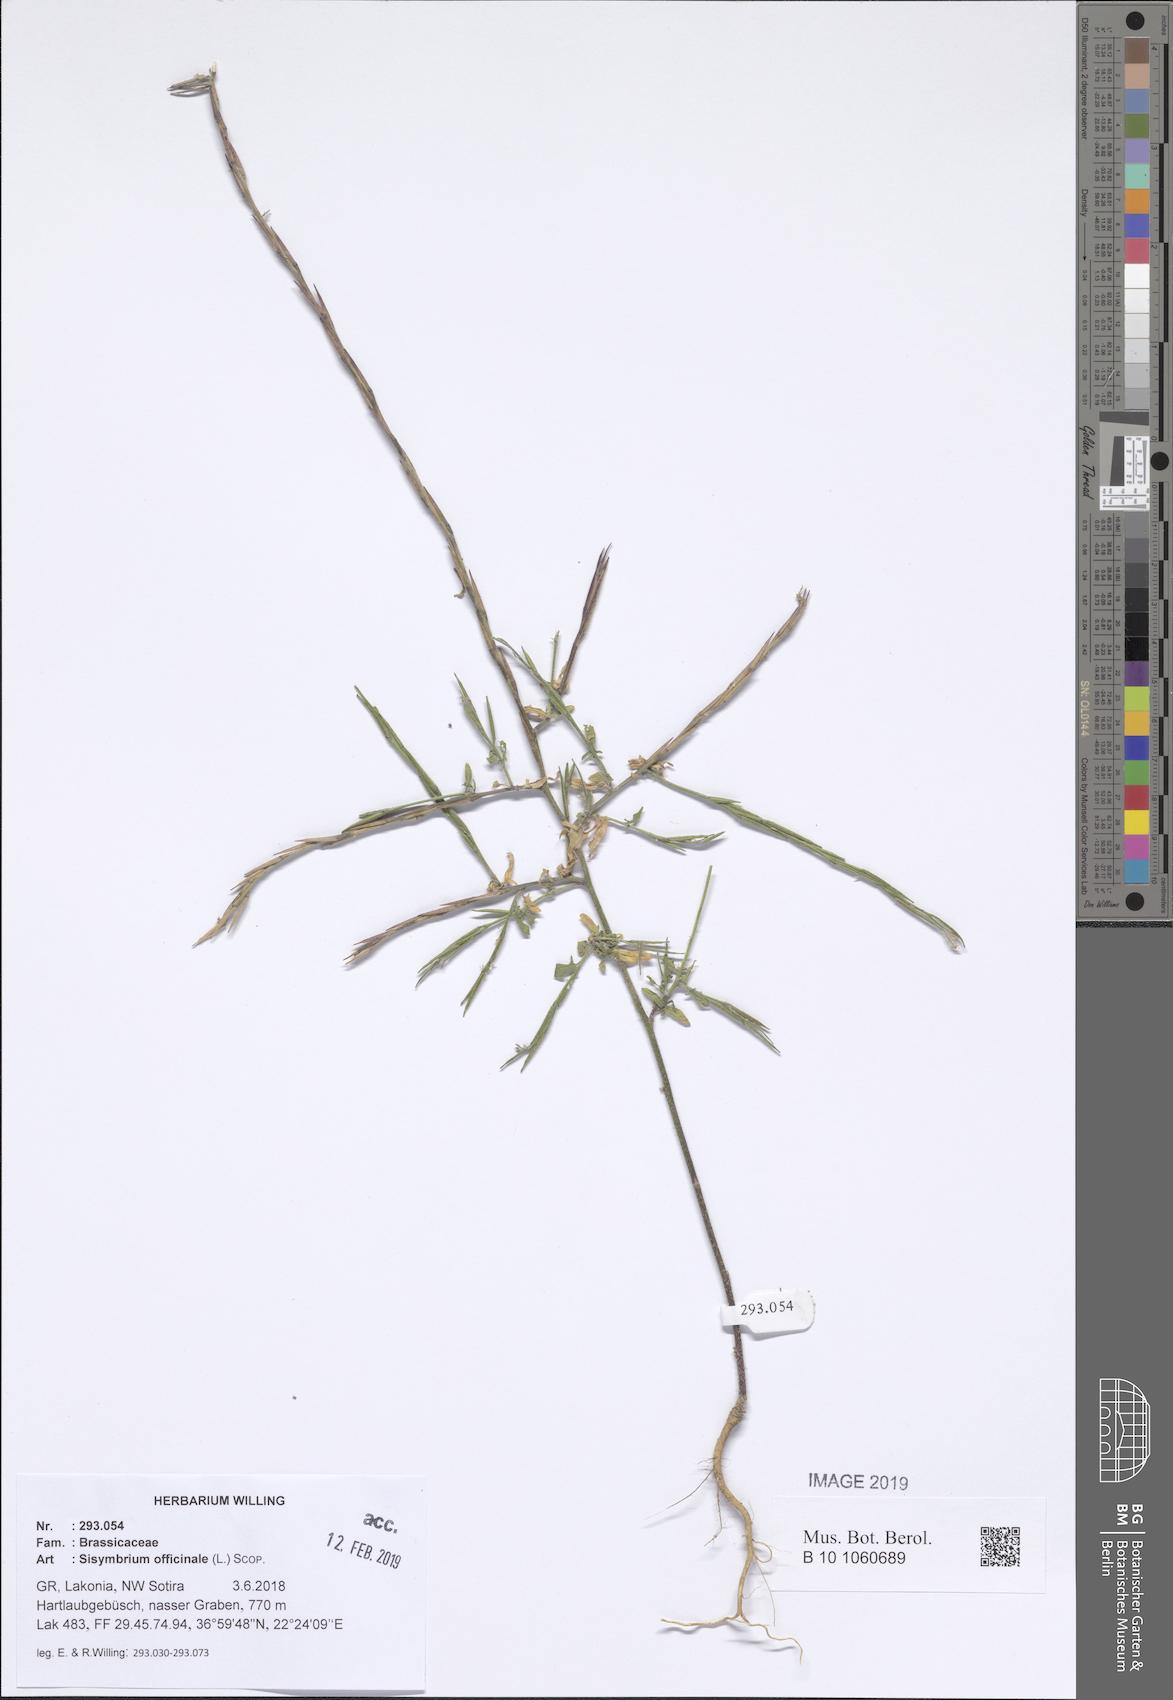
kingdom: Plantae
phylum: Tracheophyta
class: Magnoliopsida
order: Brassicales
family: Brassicaceae
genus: Sisymbrium
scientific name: Sisymbrium officinale
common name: Hedge mustard
